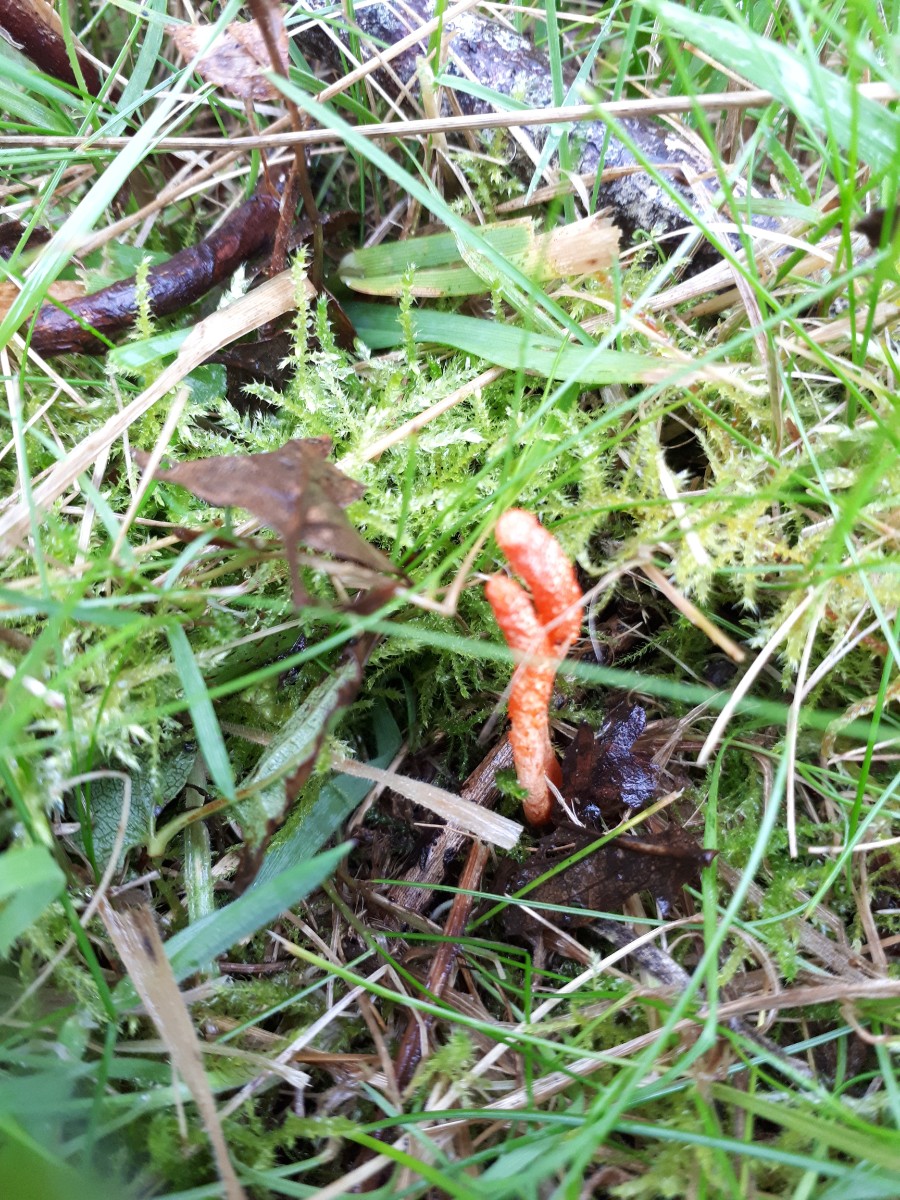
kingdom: Fungi
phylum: Ascomycota
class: Sordariomycetes
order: Hypocreales
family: Cordycipitaceae
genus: Cordyceps
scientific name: Cordyceps militaris
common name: puppe-snyltekølle
